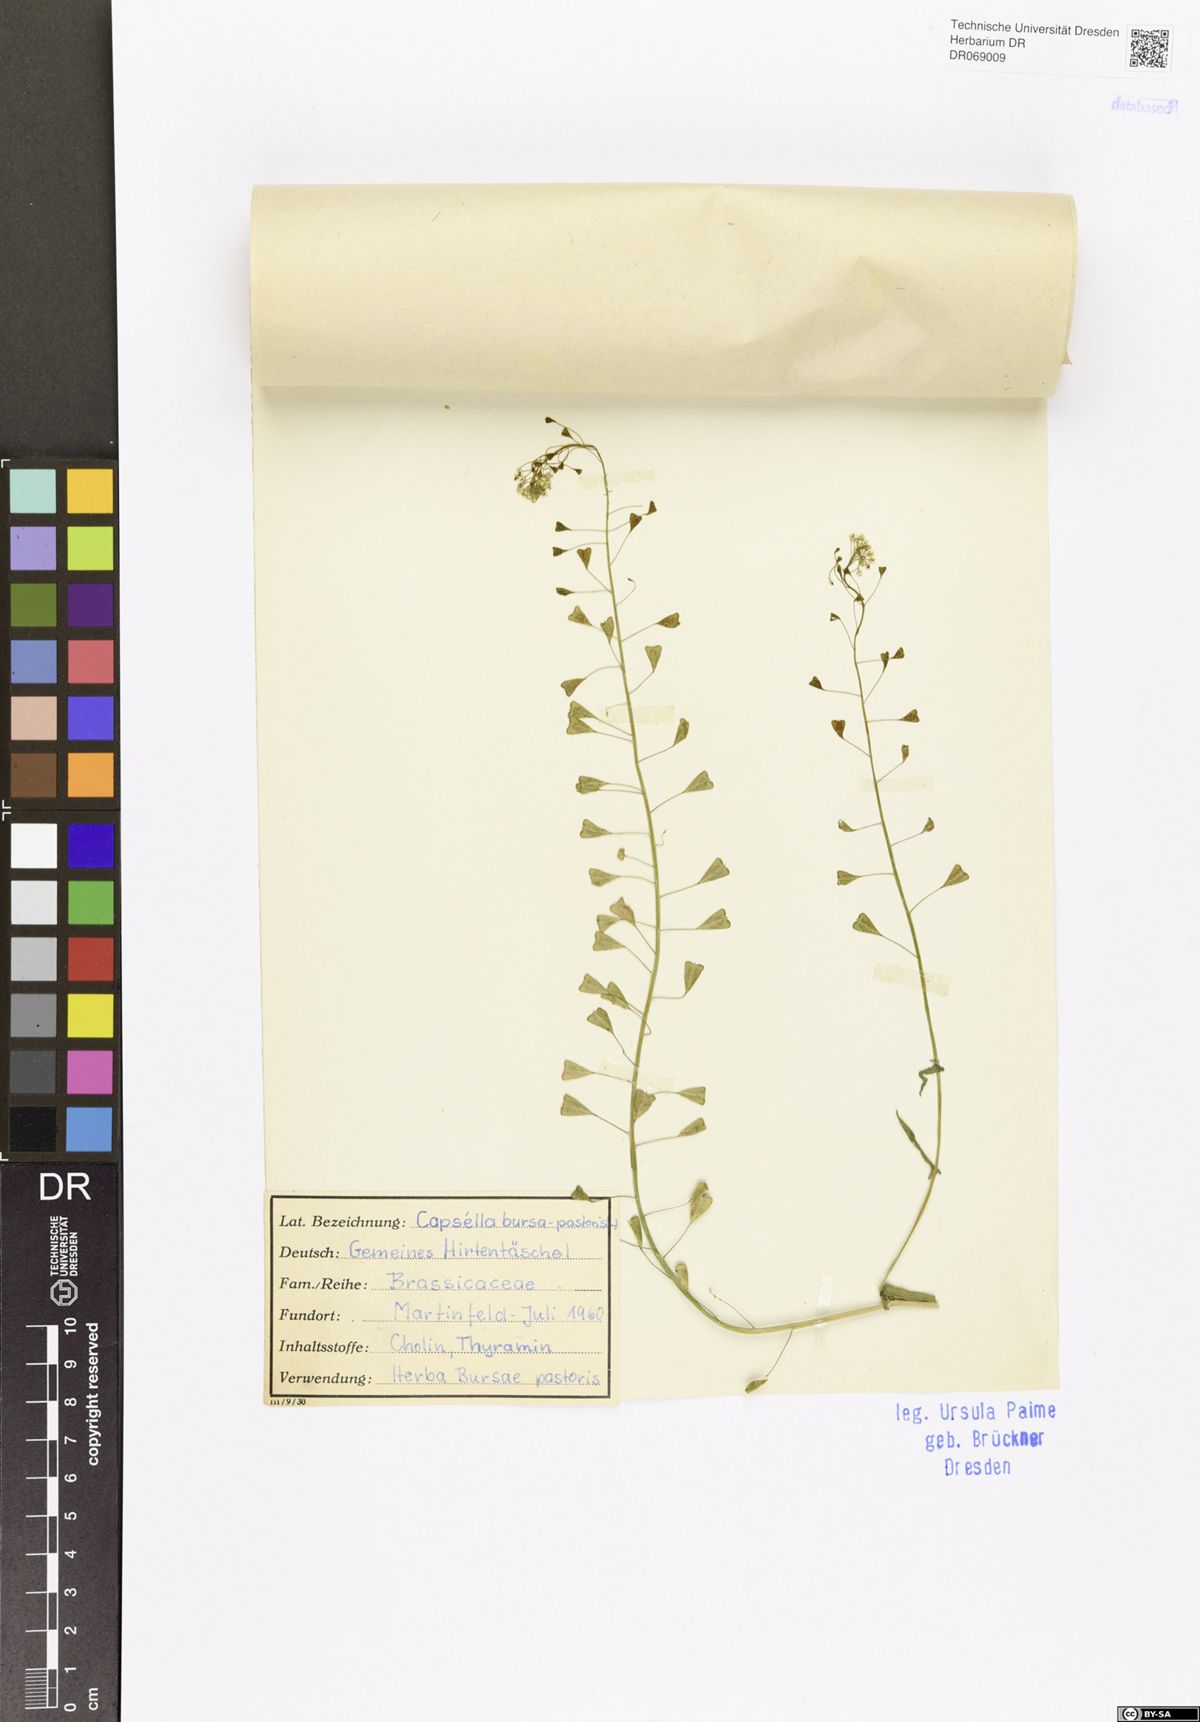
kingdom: Plantae
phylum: Tracheophyta
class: Magnoliopsida
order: Brassicales
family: Brassicaceae
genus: Capsella
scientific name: Capsella bursa-pastoris
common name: Shepherd's purse
